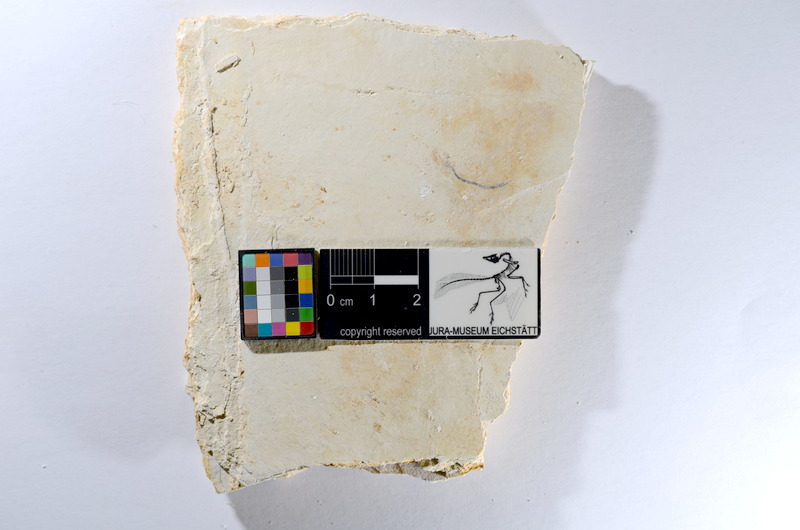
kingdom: Animalia
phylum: Chordata
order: Salmoniformes
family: Orthogonikleithridae
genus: Orthogonikleithrus
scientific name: Orthogonikleithrus hoelli
